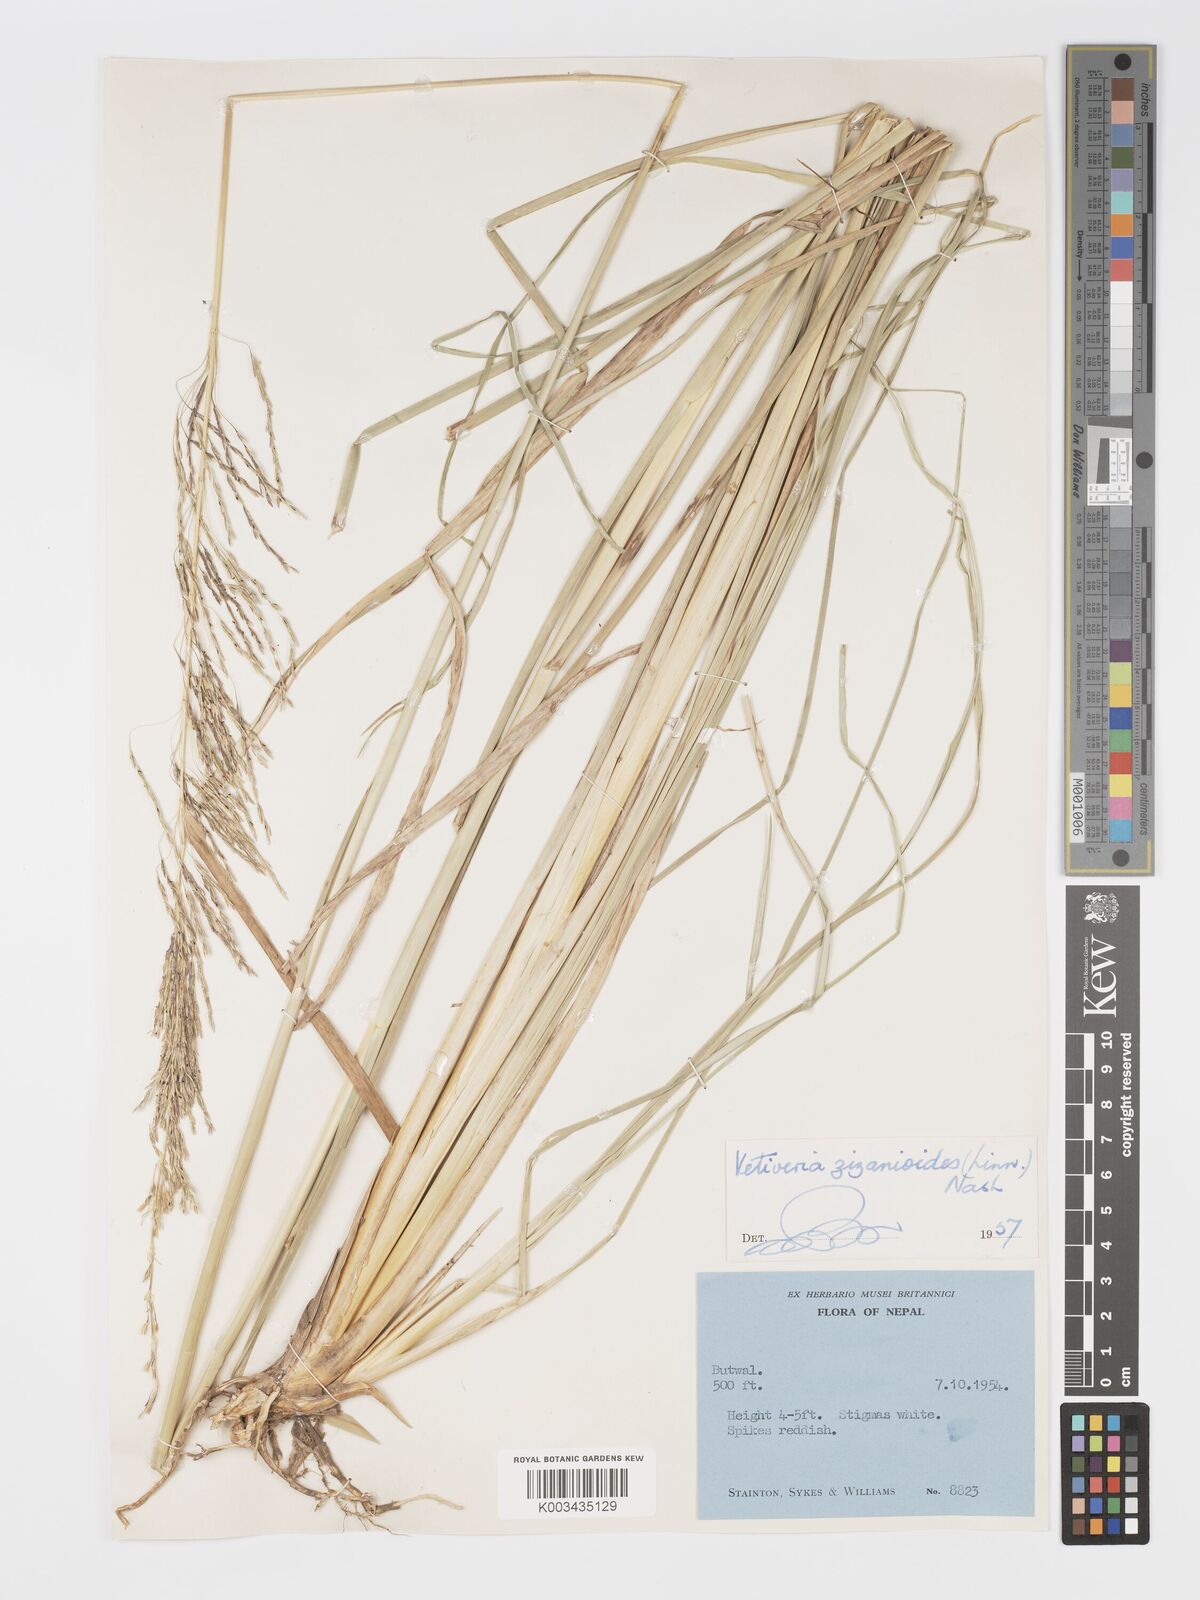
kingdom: Plantae
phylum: Tracheophyta
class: Liliopsida
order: Poales
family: Poaceae
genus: Chrysopogon
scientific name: Chrysopogon zizanioides
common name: False beardgrass
